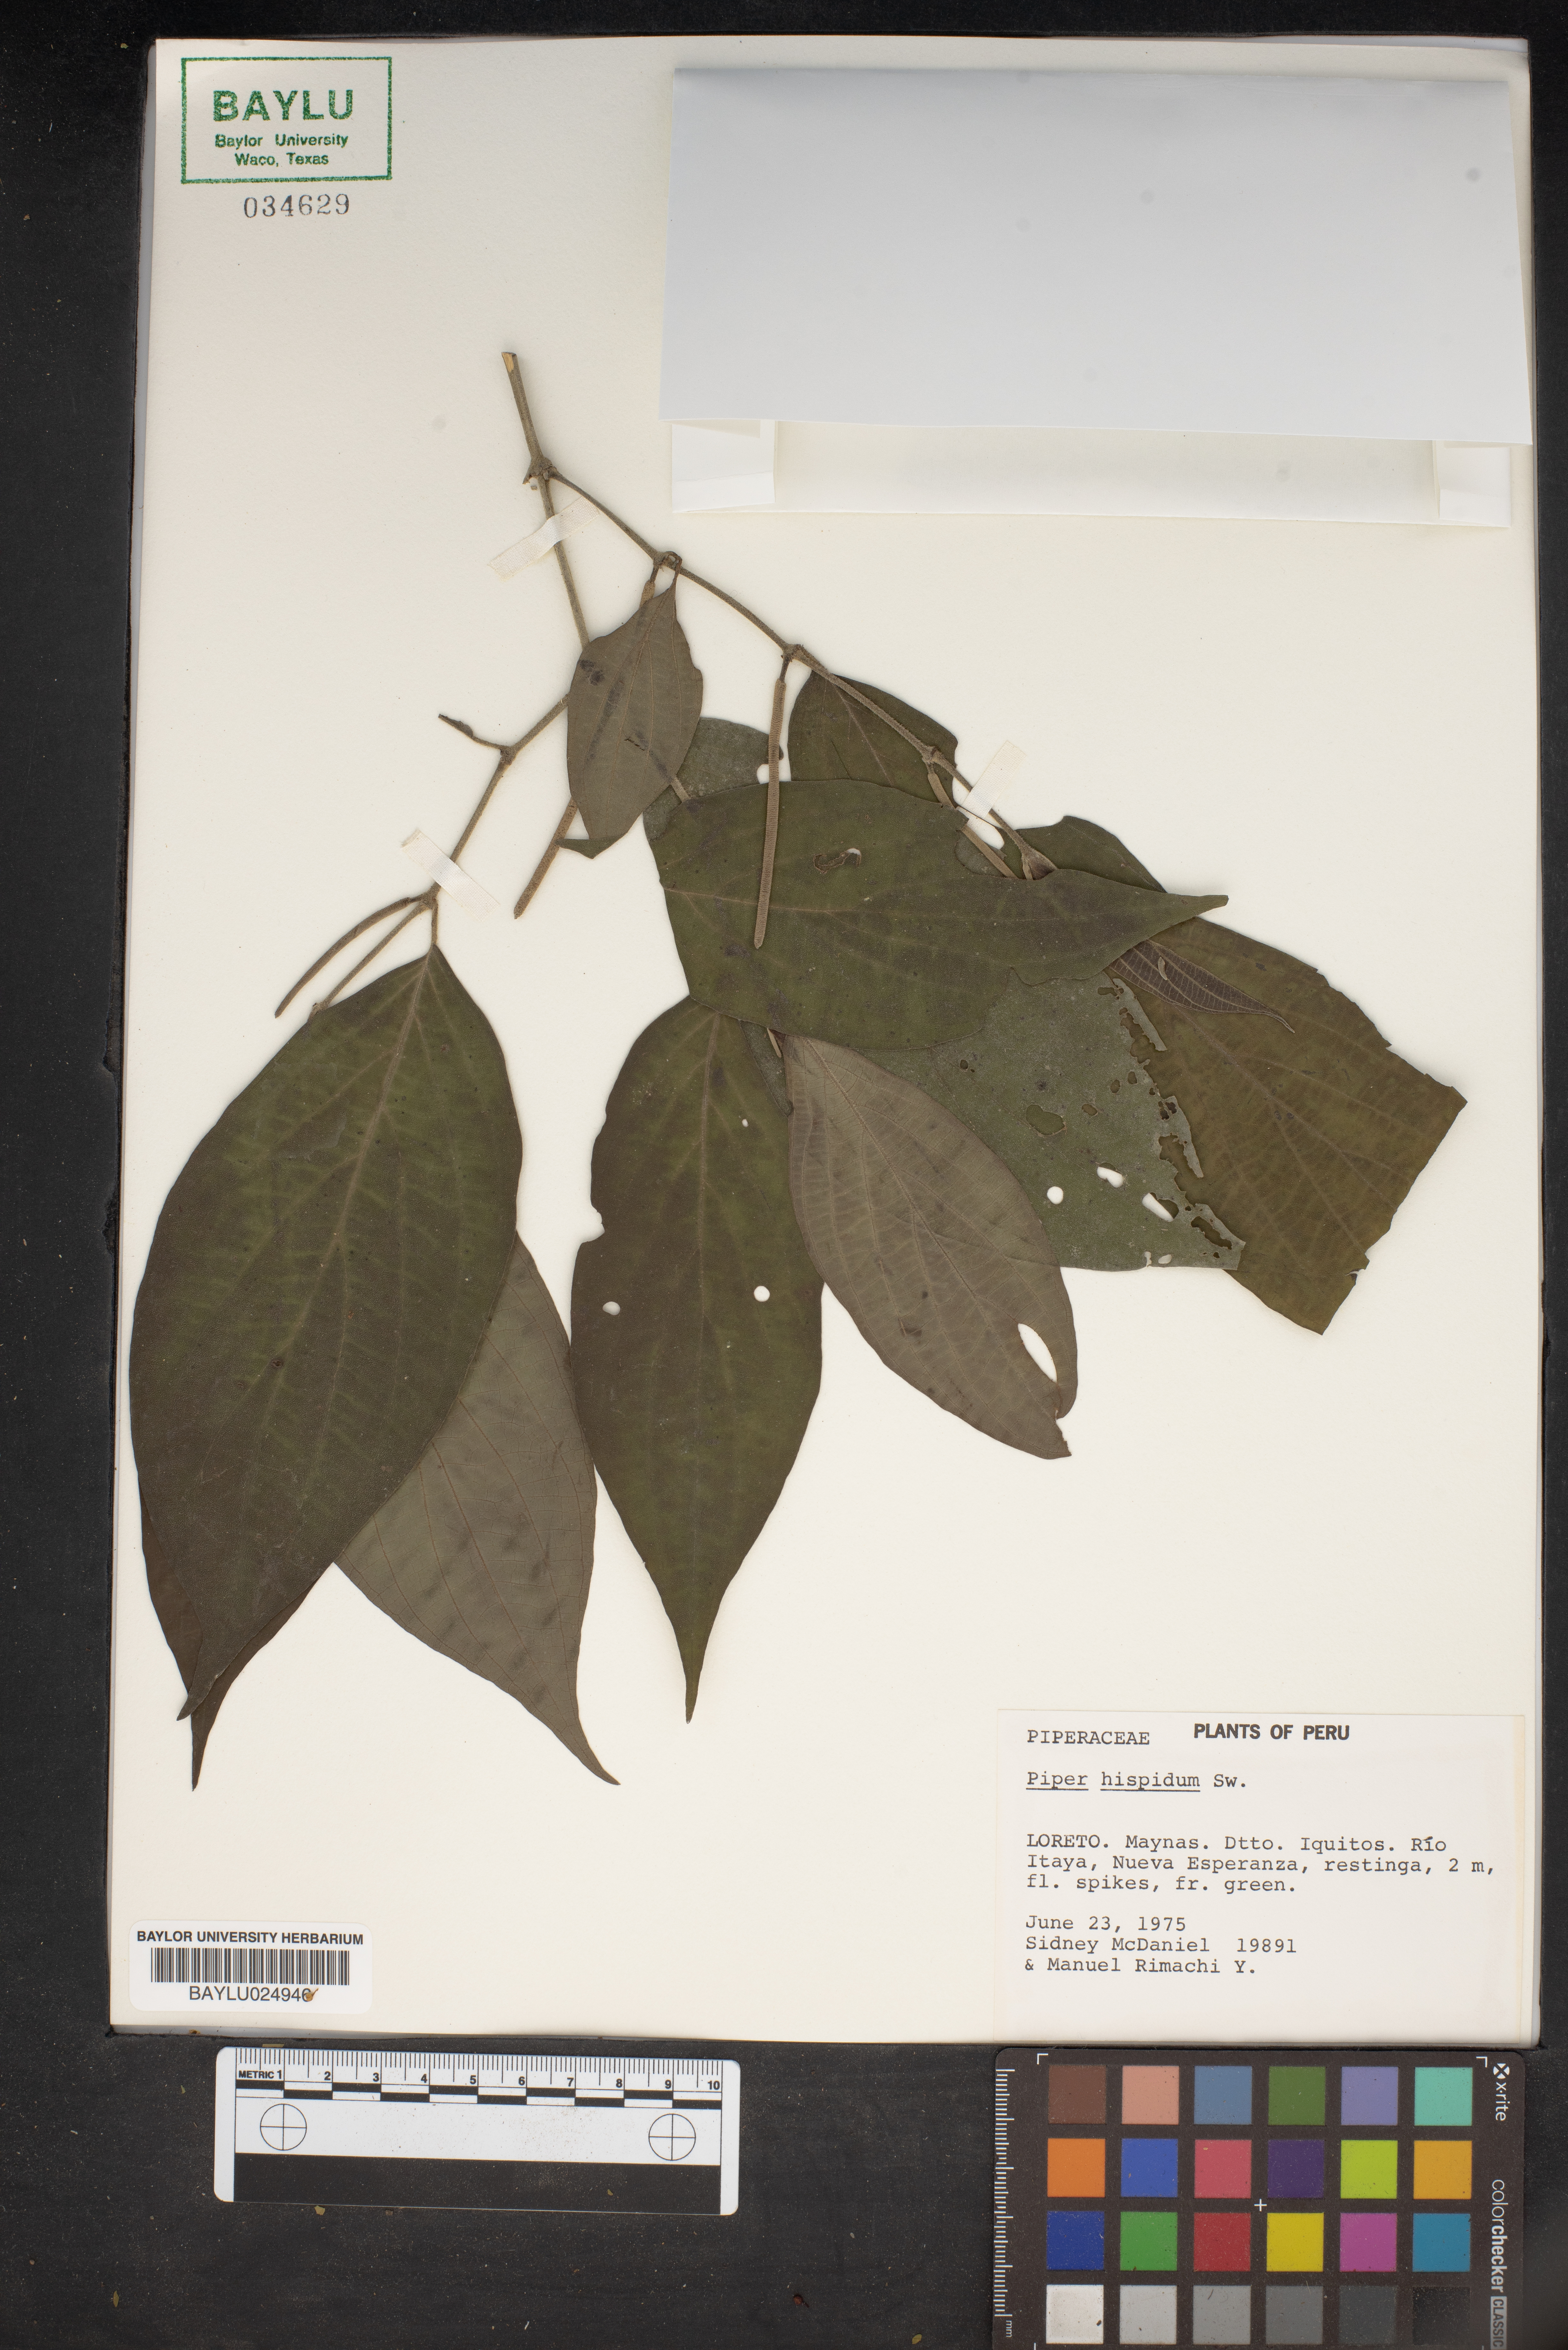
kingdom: Plantae
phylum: Tracheophyta
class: Magnoliopsida
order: Piperales
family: Piperaceae
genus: Piper
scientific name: Piper hispidum
